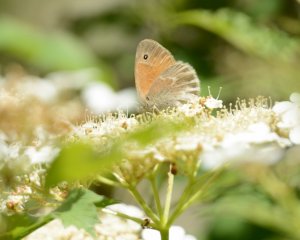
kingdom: Animalia
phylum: Arthropoda
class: Insecta
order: Lepidoptera
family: Nymphalidae
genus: Coenonympha
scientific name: Coenonympha tullia
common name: Large Heath
